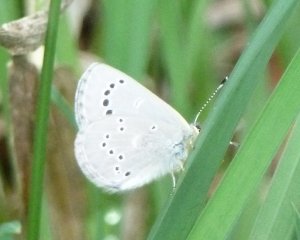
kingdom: Animalia
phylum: Arthropoda
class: Insecta
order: Lepidoptera
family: Lycaenidae
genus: Glaucopsyche
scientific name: Glaucopsyche lygdamus
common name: Silvery Blue
